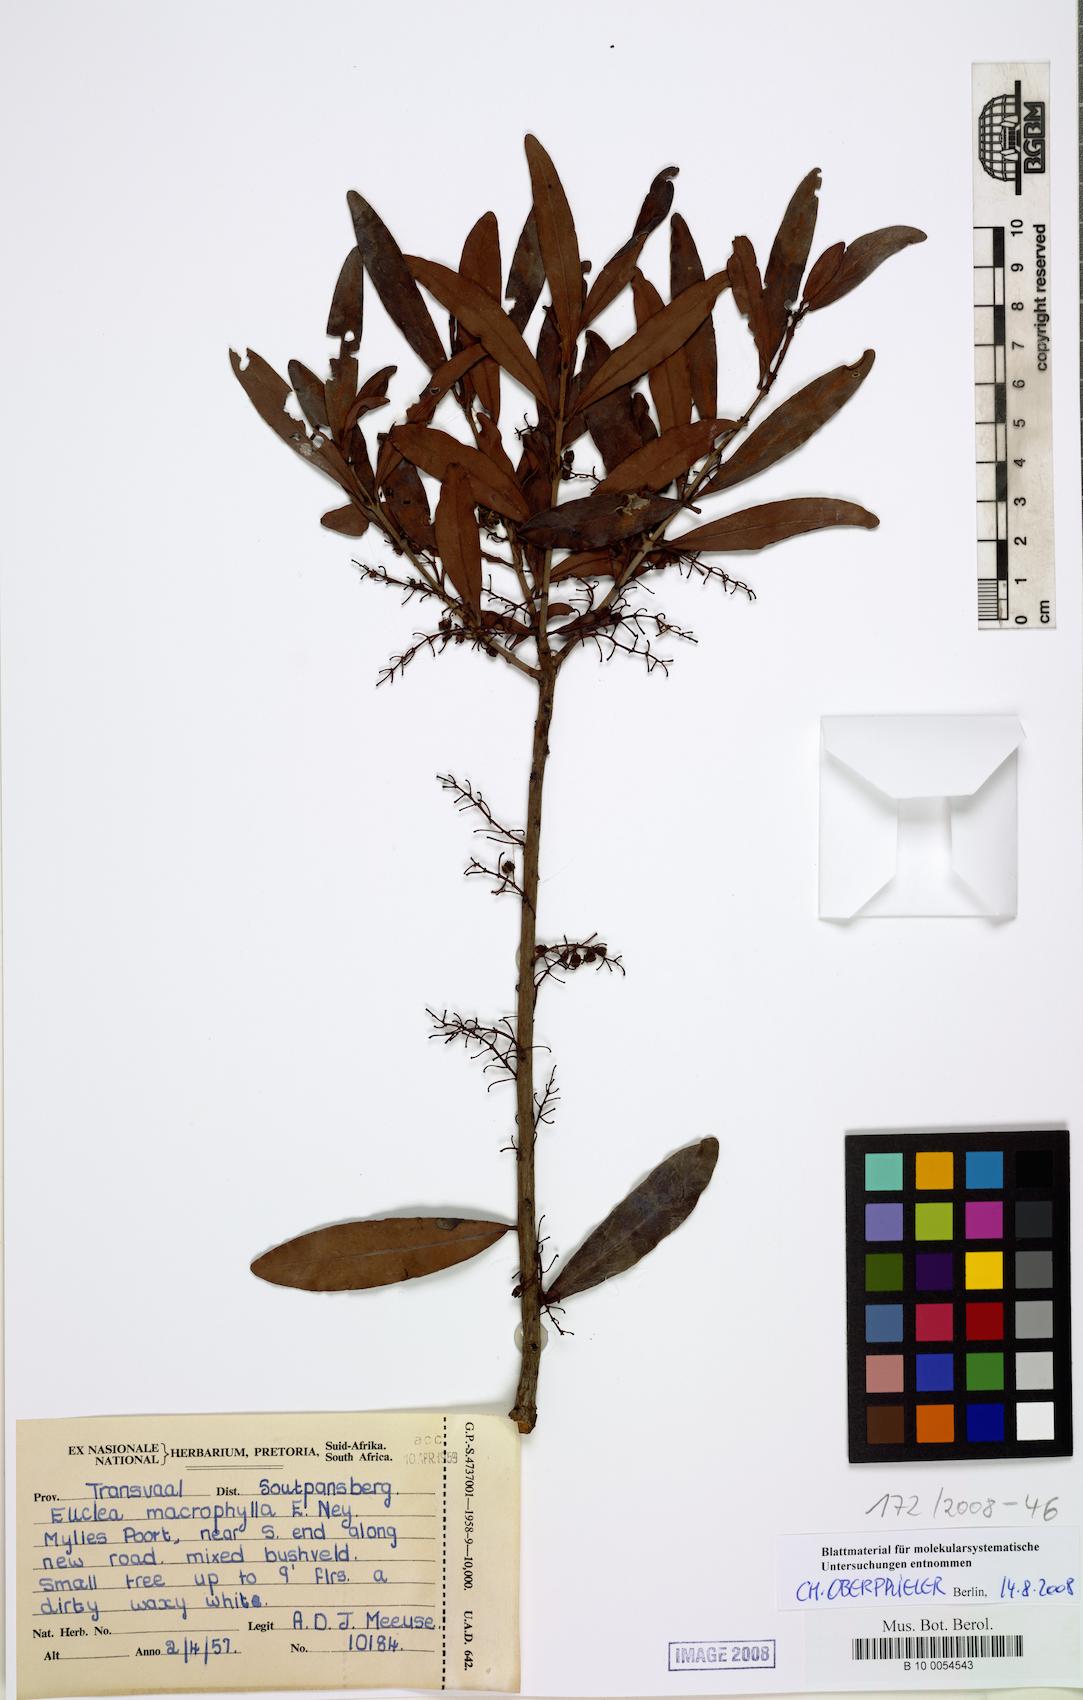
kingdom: Plantae
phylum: Tracheophyta
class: Magnoliopsida
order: Ericales
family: Ebenaceae
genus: Euclea
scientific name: Euclea macrophylla
